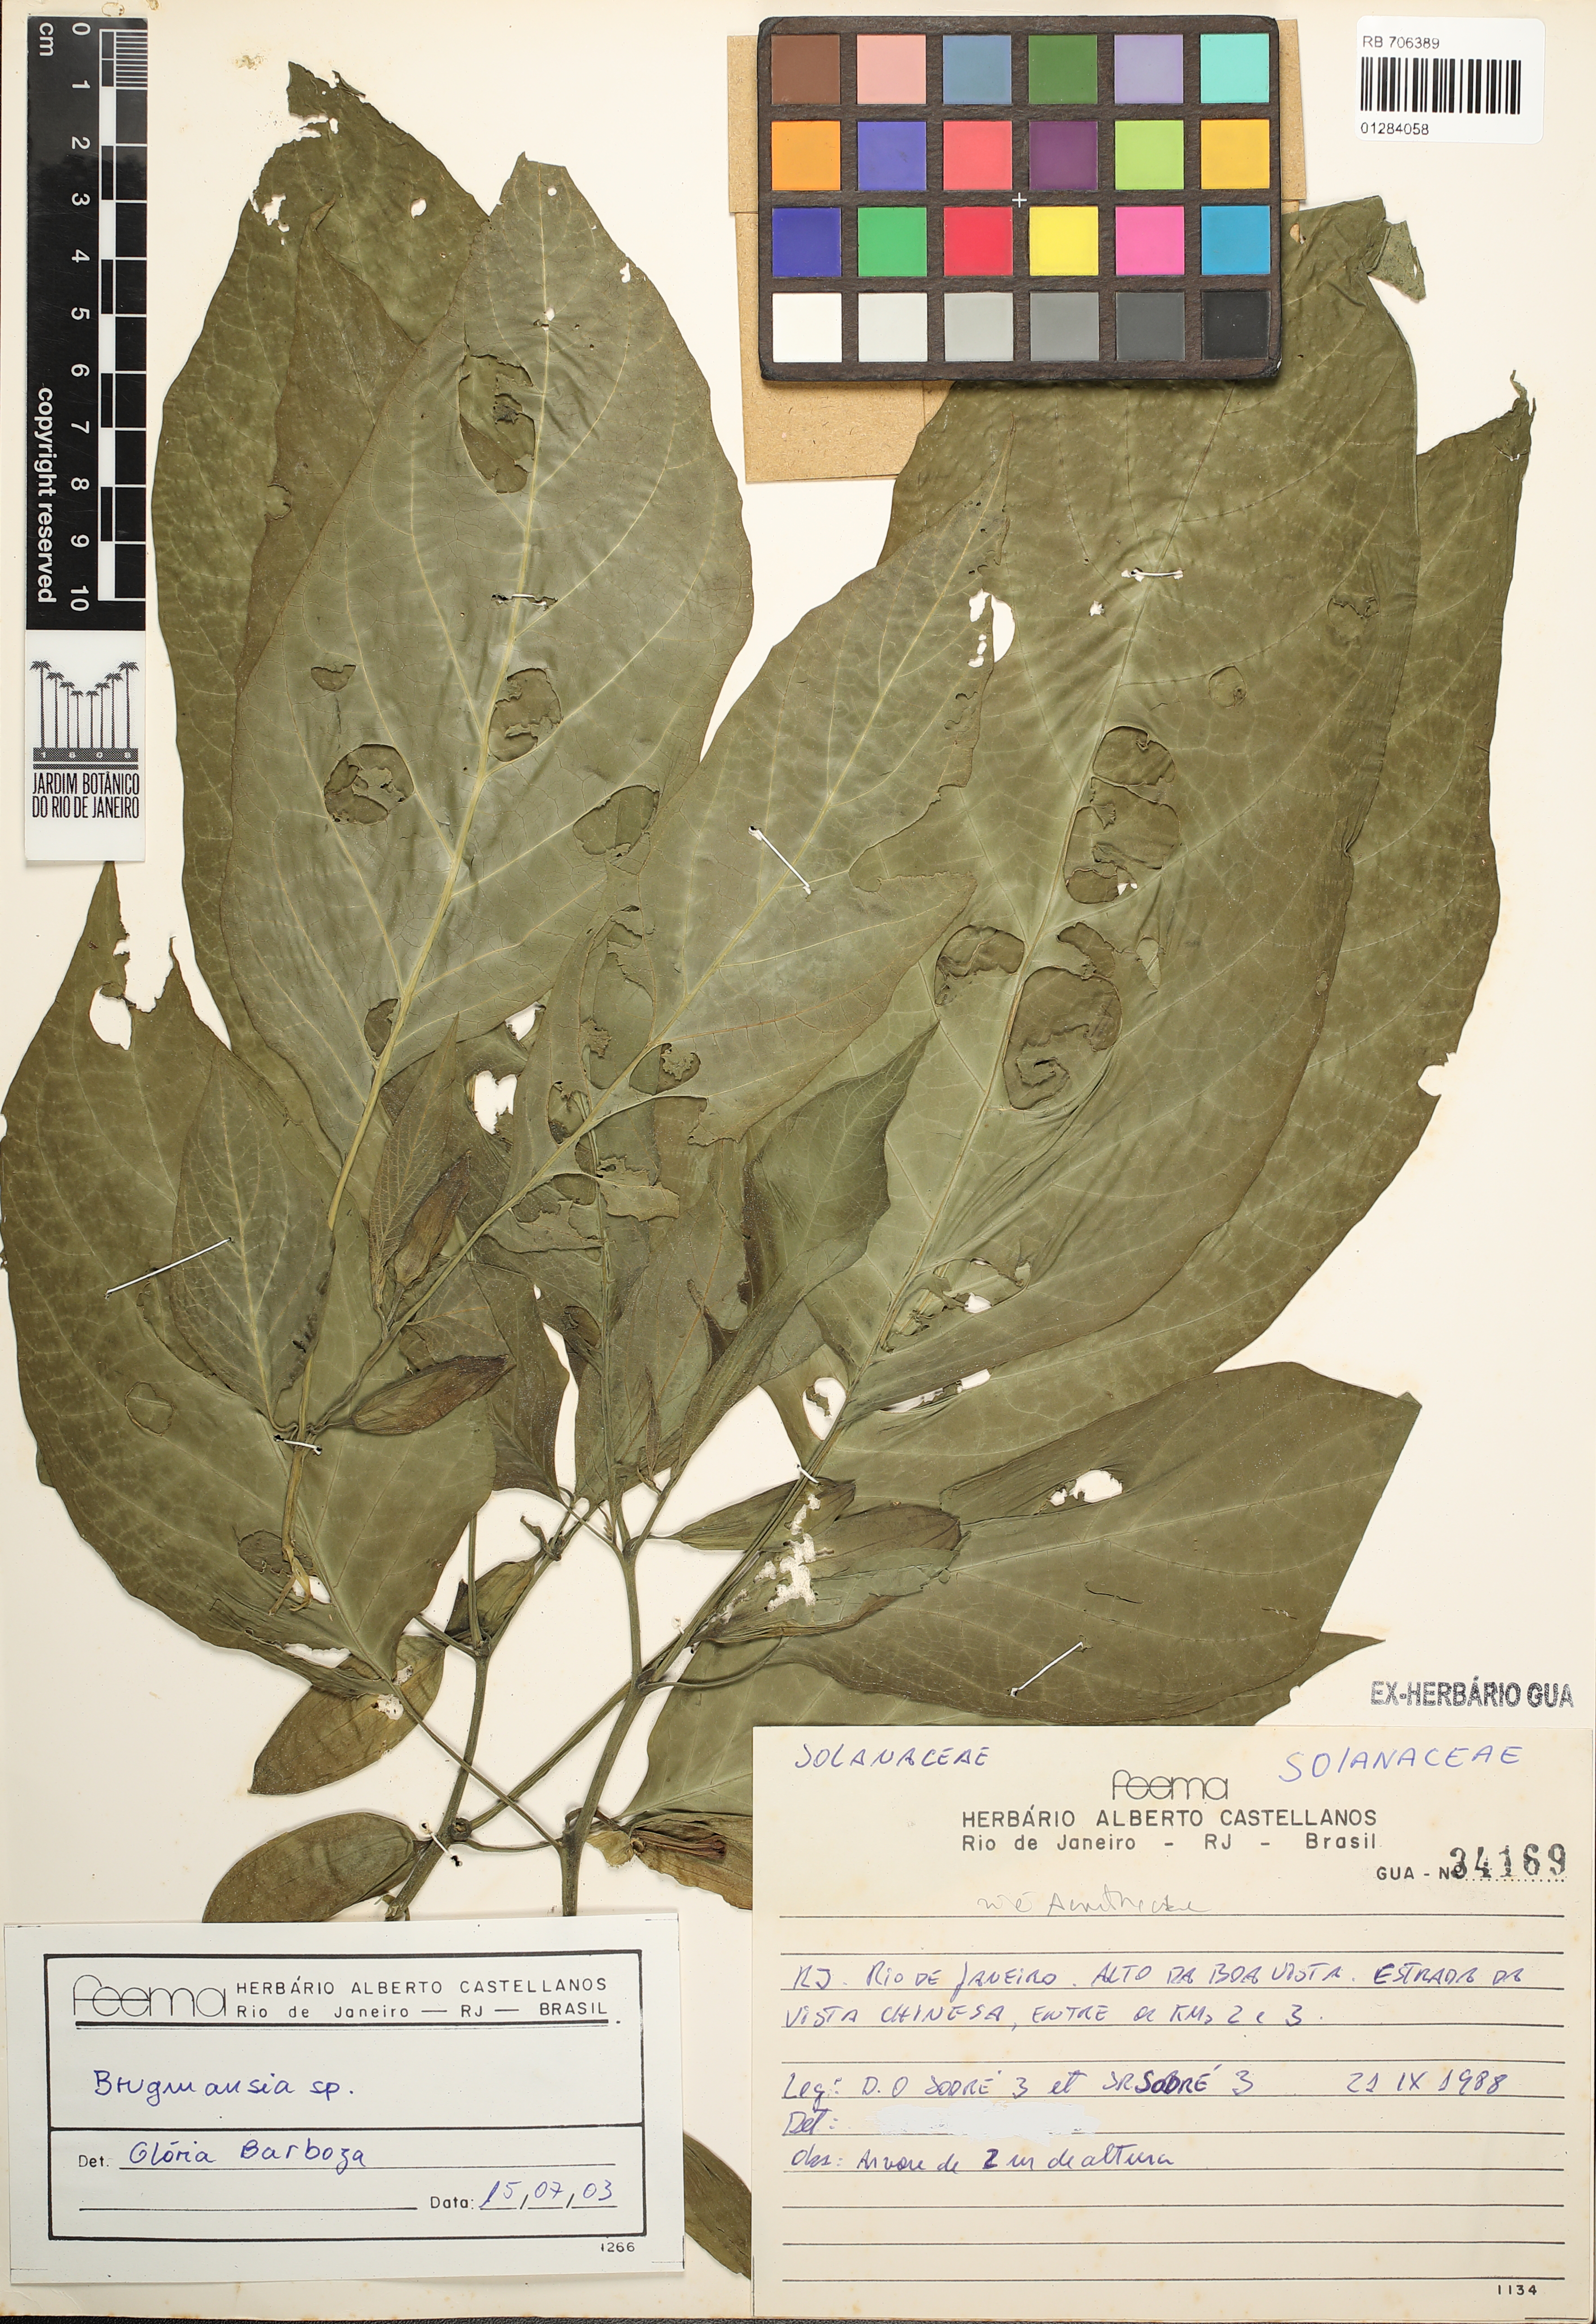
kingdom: Plantae
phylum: Tracheophyta
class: Magnoliopsida
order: Solanales
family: Solanaceae
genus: Brugmansia
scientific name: Brugmansia
